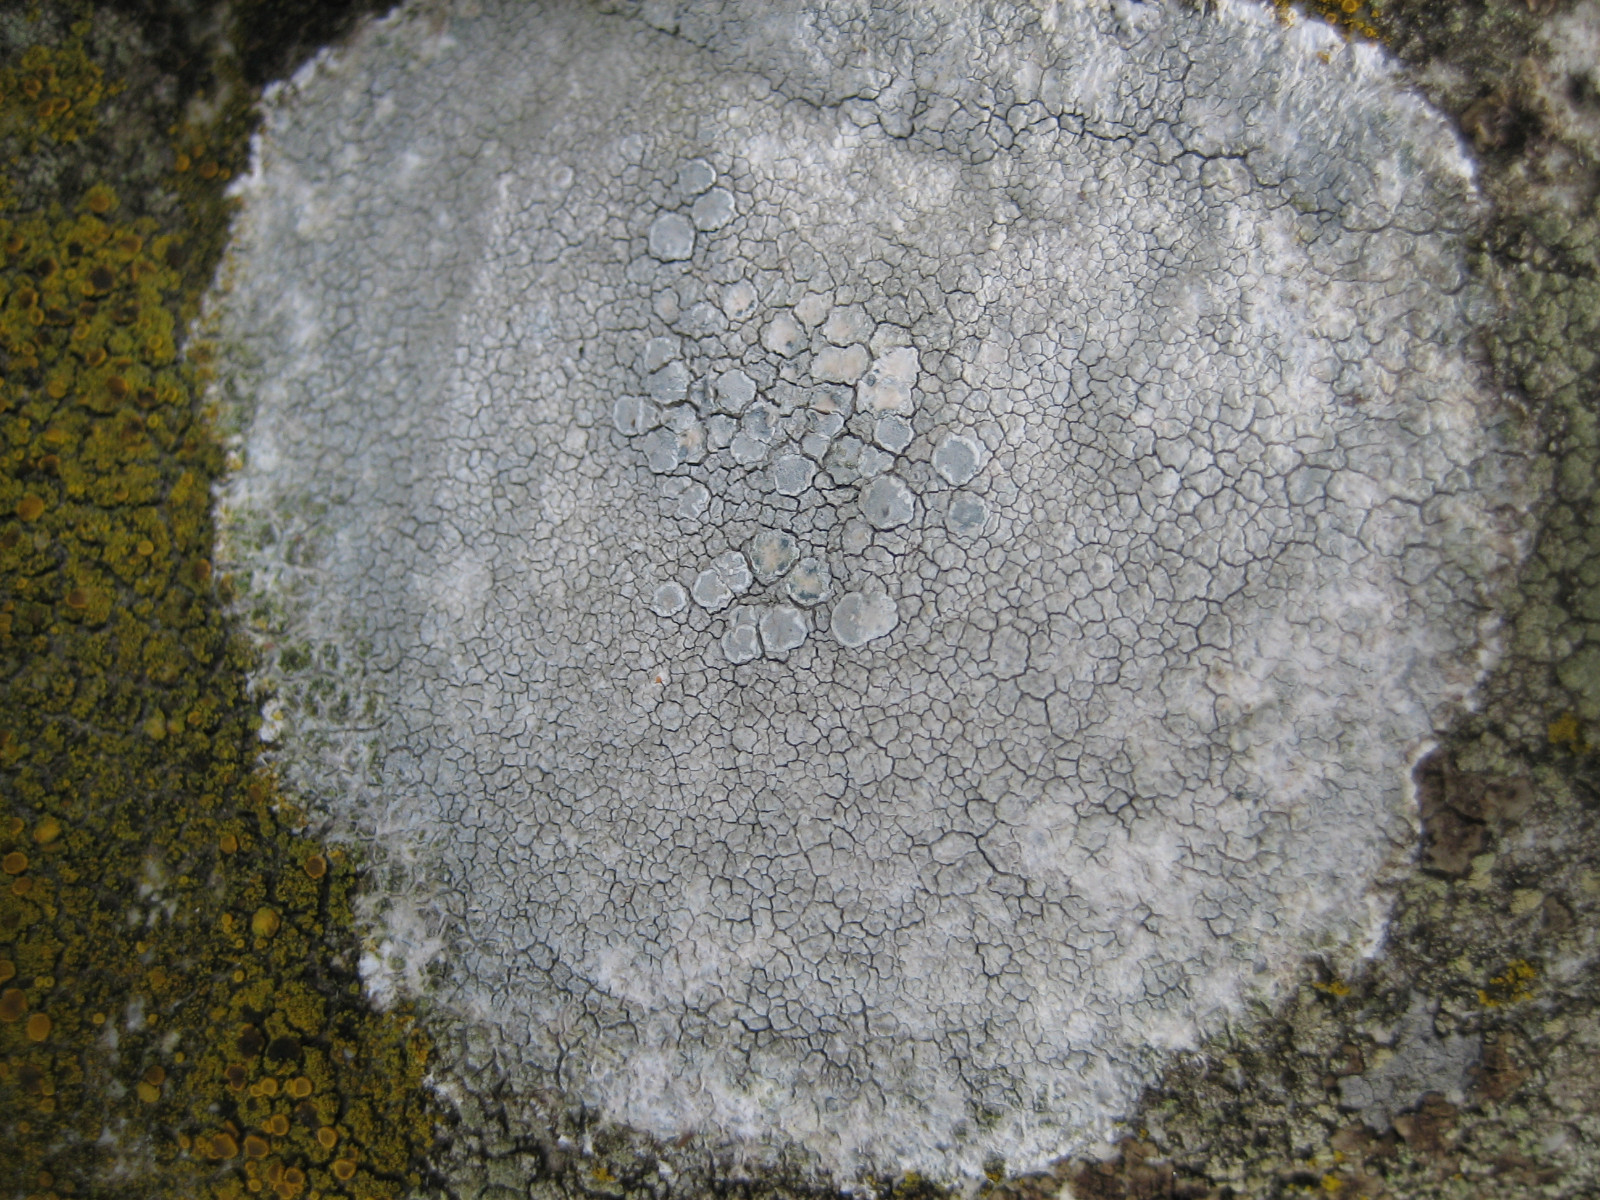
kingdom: Fungi
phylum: Ascomycota
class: Lecanoromycetes
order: Lecanorales
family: Lecanoraceae
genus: Glaucomaria
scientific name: Glaucomaria rupicola
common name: stengærde-kantskivelav
